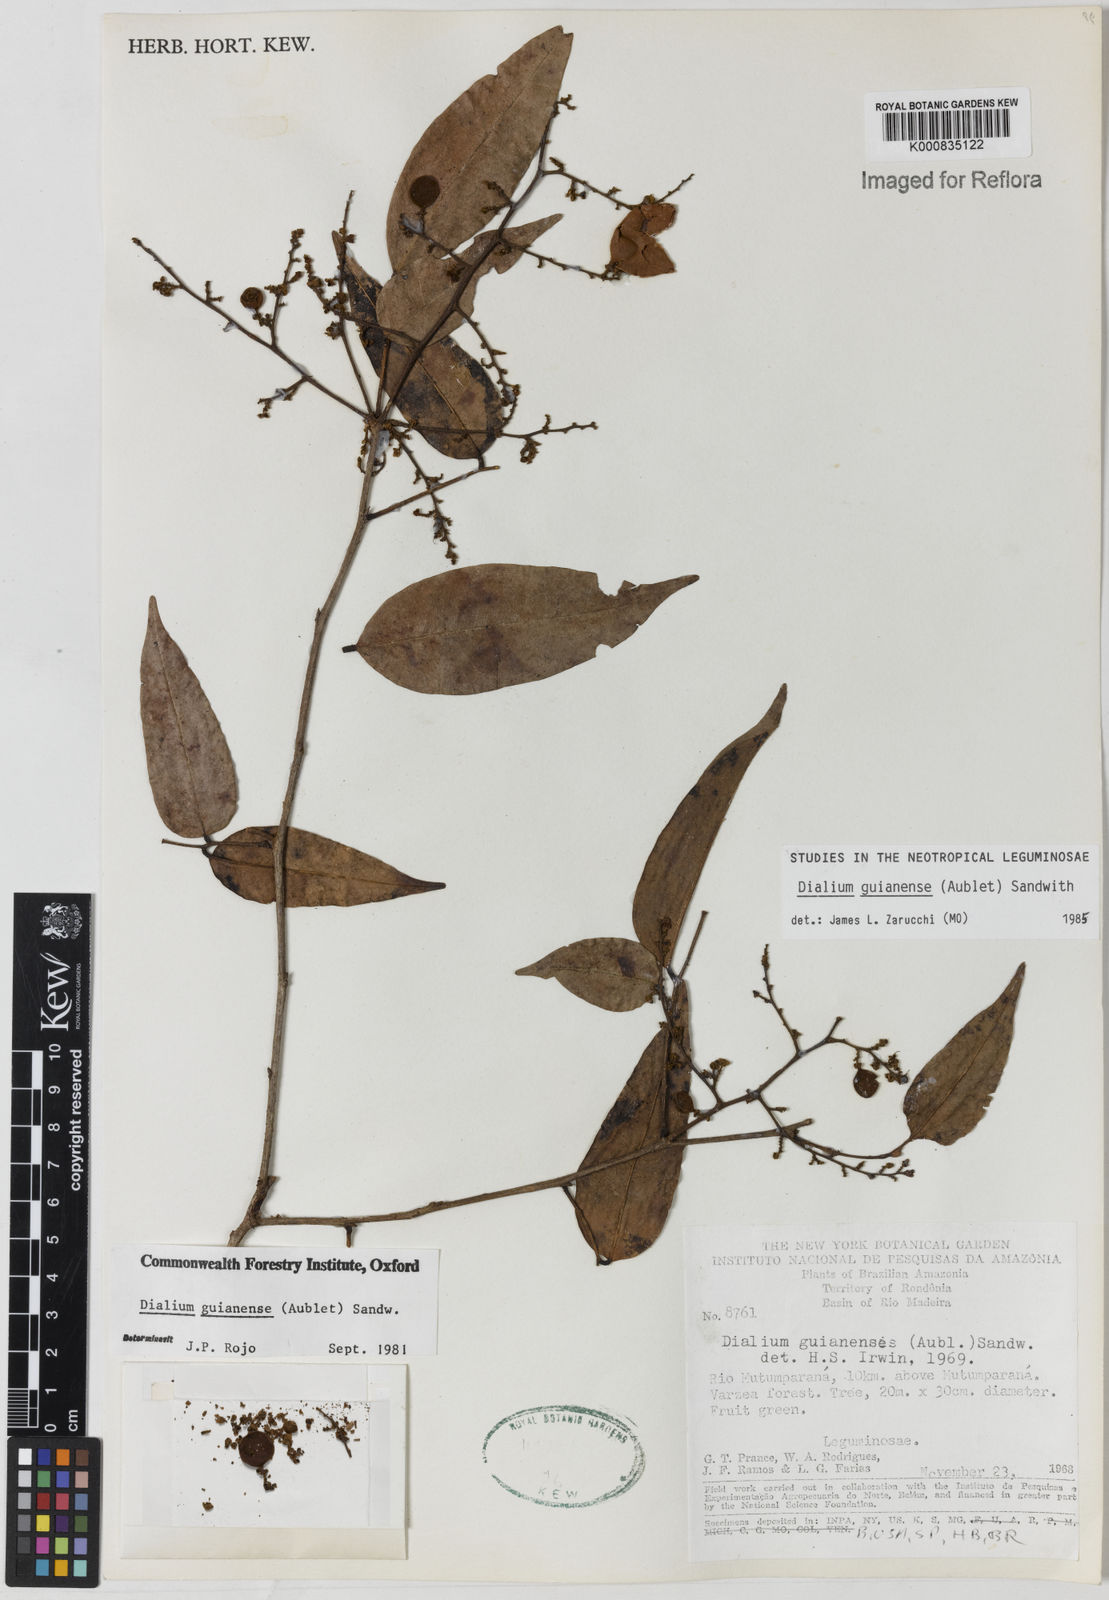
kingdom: Plantae
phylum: Tracheophyta
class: Magnoliopsida
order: Fabales
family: Fabaceae
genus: Dialium
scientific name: Dialium guianense
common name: Ironwood
